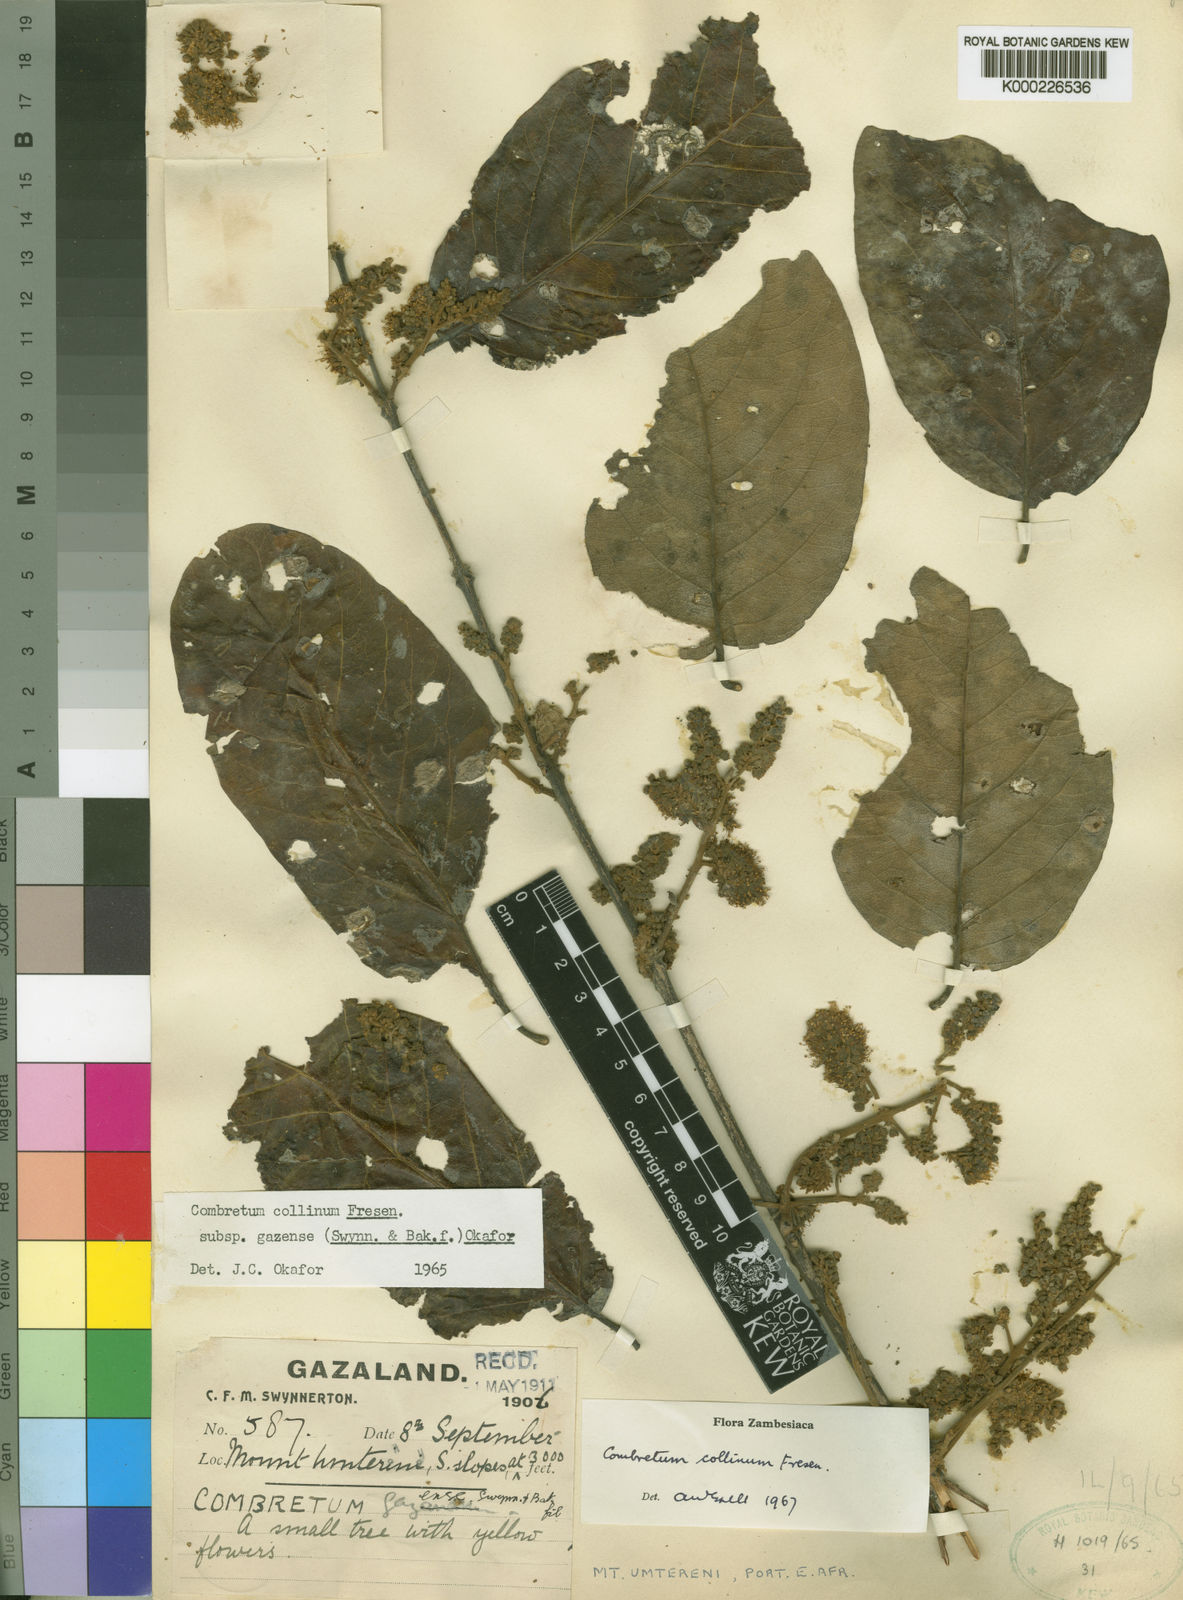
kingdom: Plantae
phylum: Tracheophyta
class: Magnoliopsida
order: Myrtales
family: Combretaceae
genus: Combretum
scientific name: Combretum collinum
